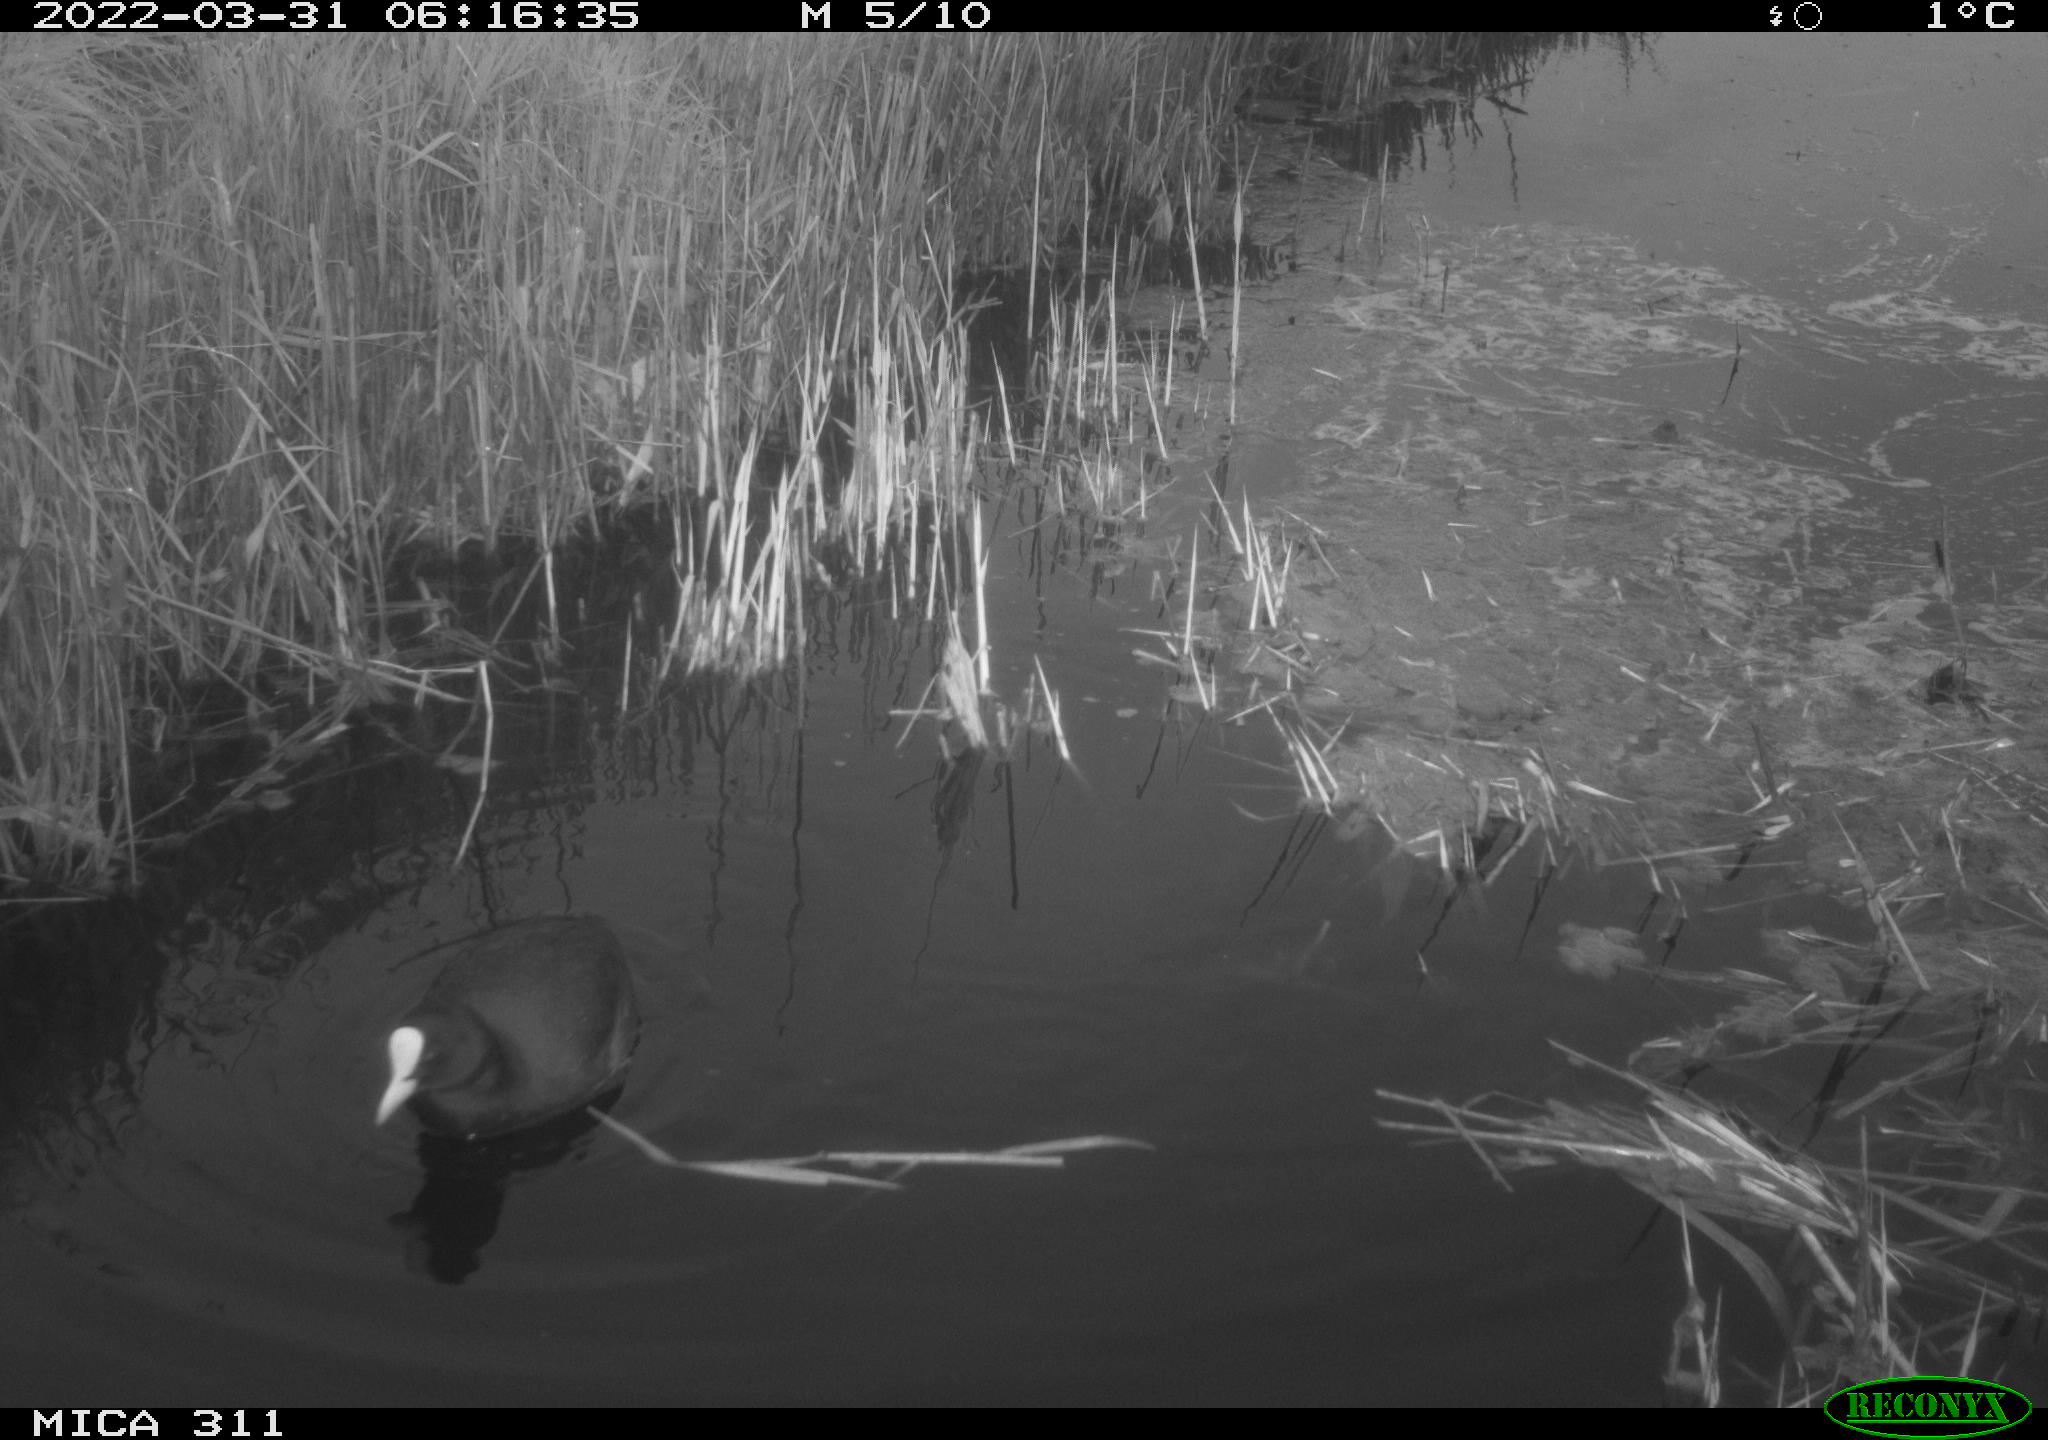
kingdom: Animalia
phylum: Chordata
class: Aves
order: Gruiformes
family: Rallidae
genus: Fulica
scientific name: Fulica atra
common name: Eurasian coot
